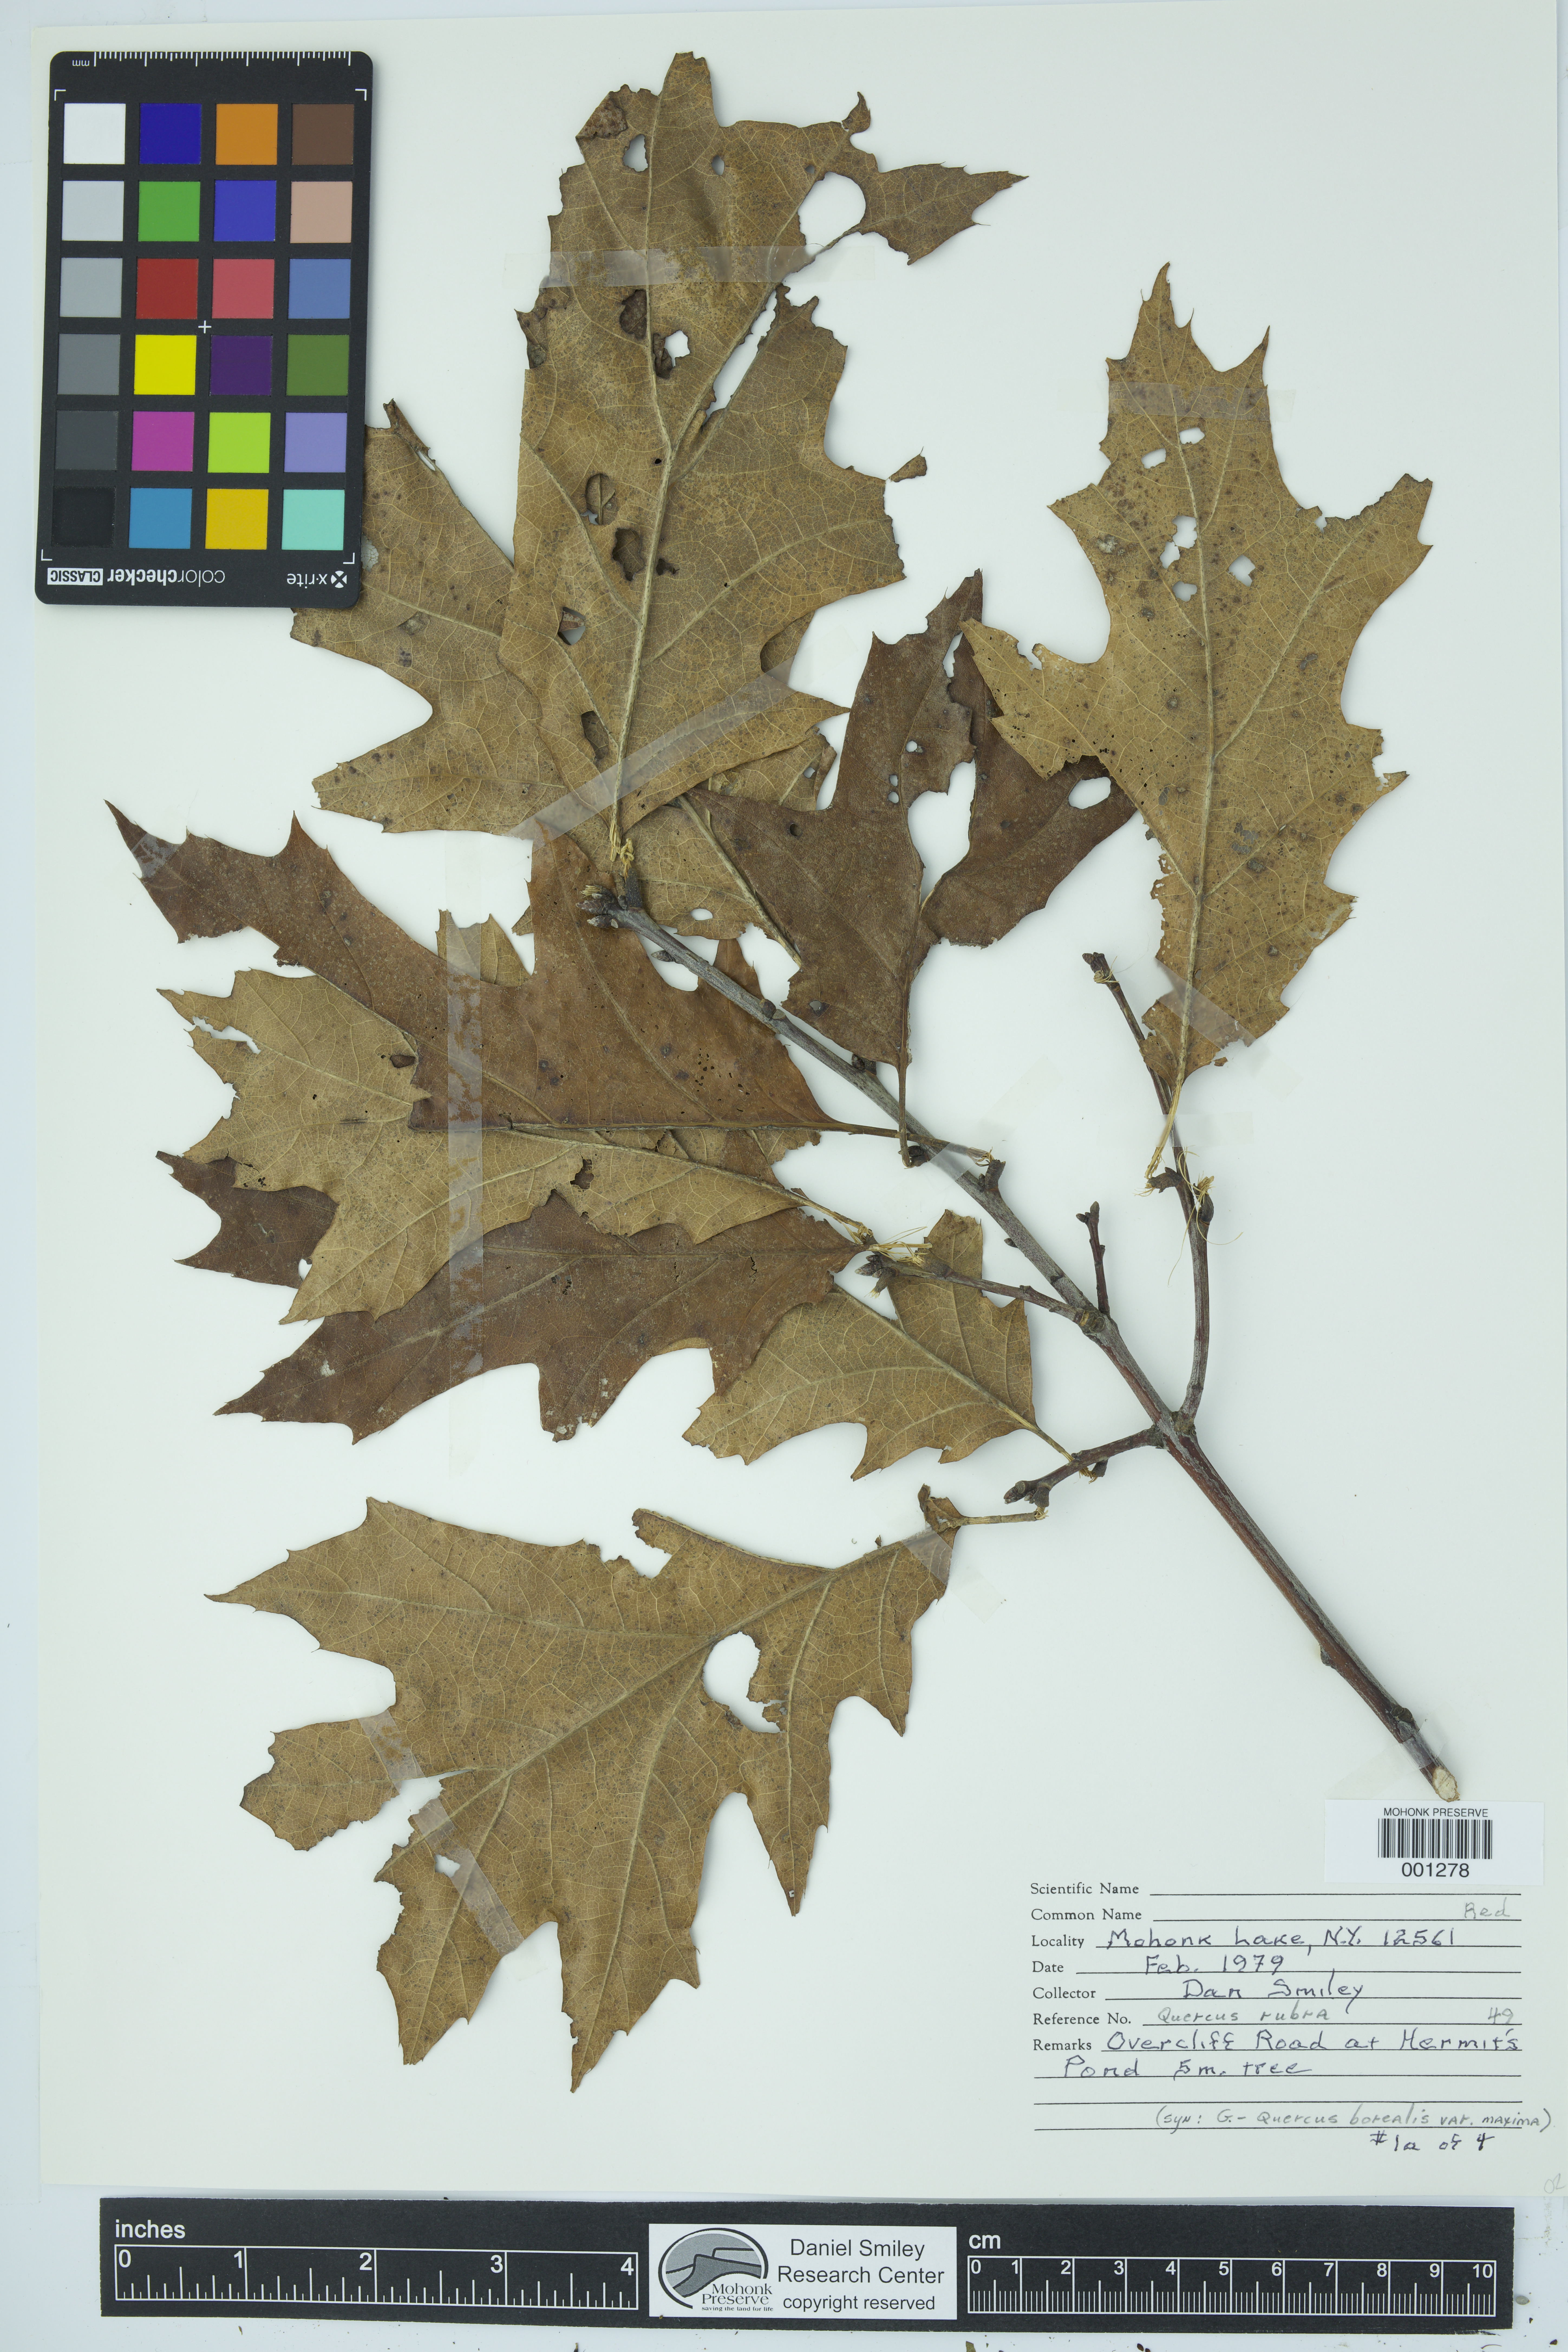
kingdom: Plantae
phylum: Tracheophyta
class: Magnoliopsida
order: Fagales
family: Fagaceae
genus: Quercus
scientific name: Quercus rubra
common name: Red oak
